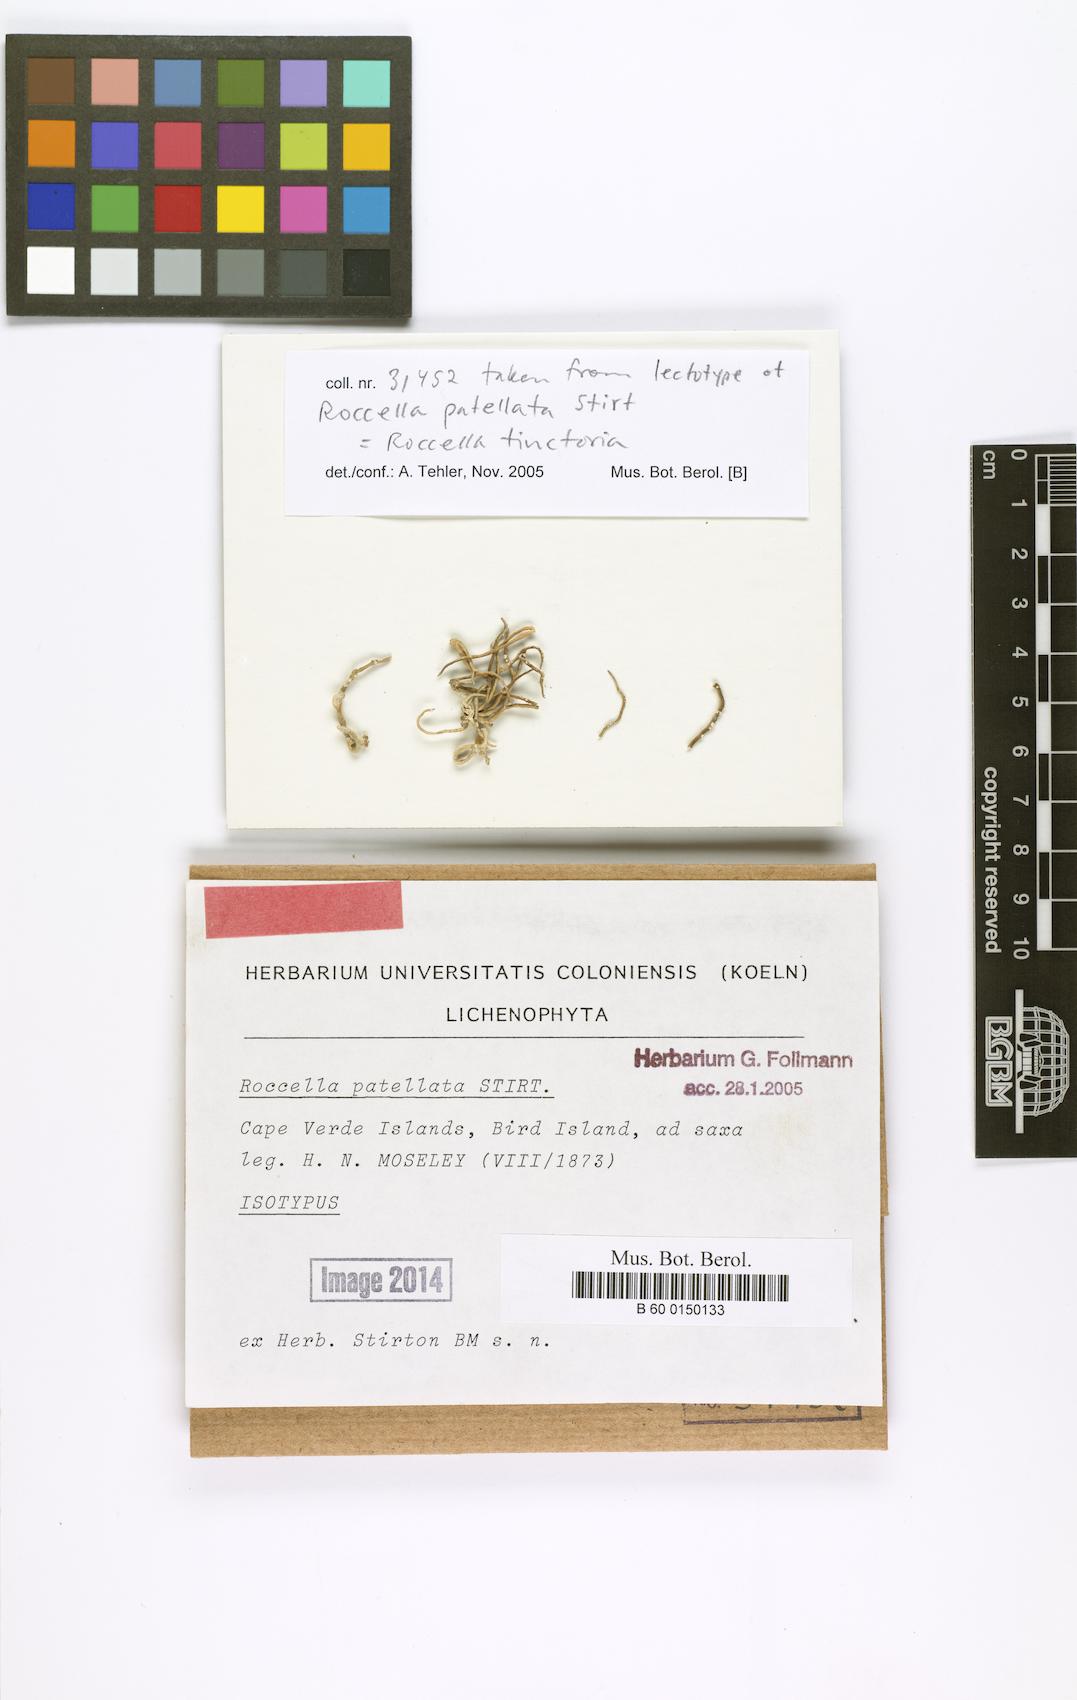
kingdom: Fungi
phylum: Ascomycota
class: Arthoniomycetes
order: Arthoniales
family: Roccellaceae
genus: Roccella
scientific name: Roccella patellata
